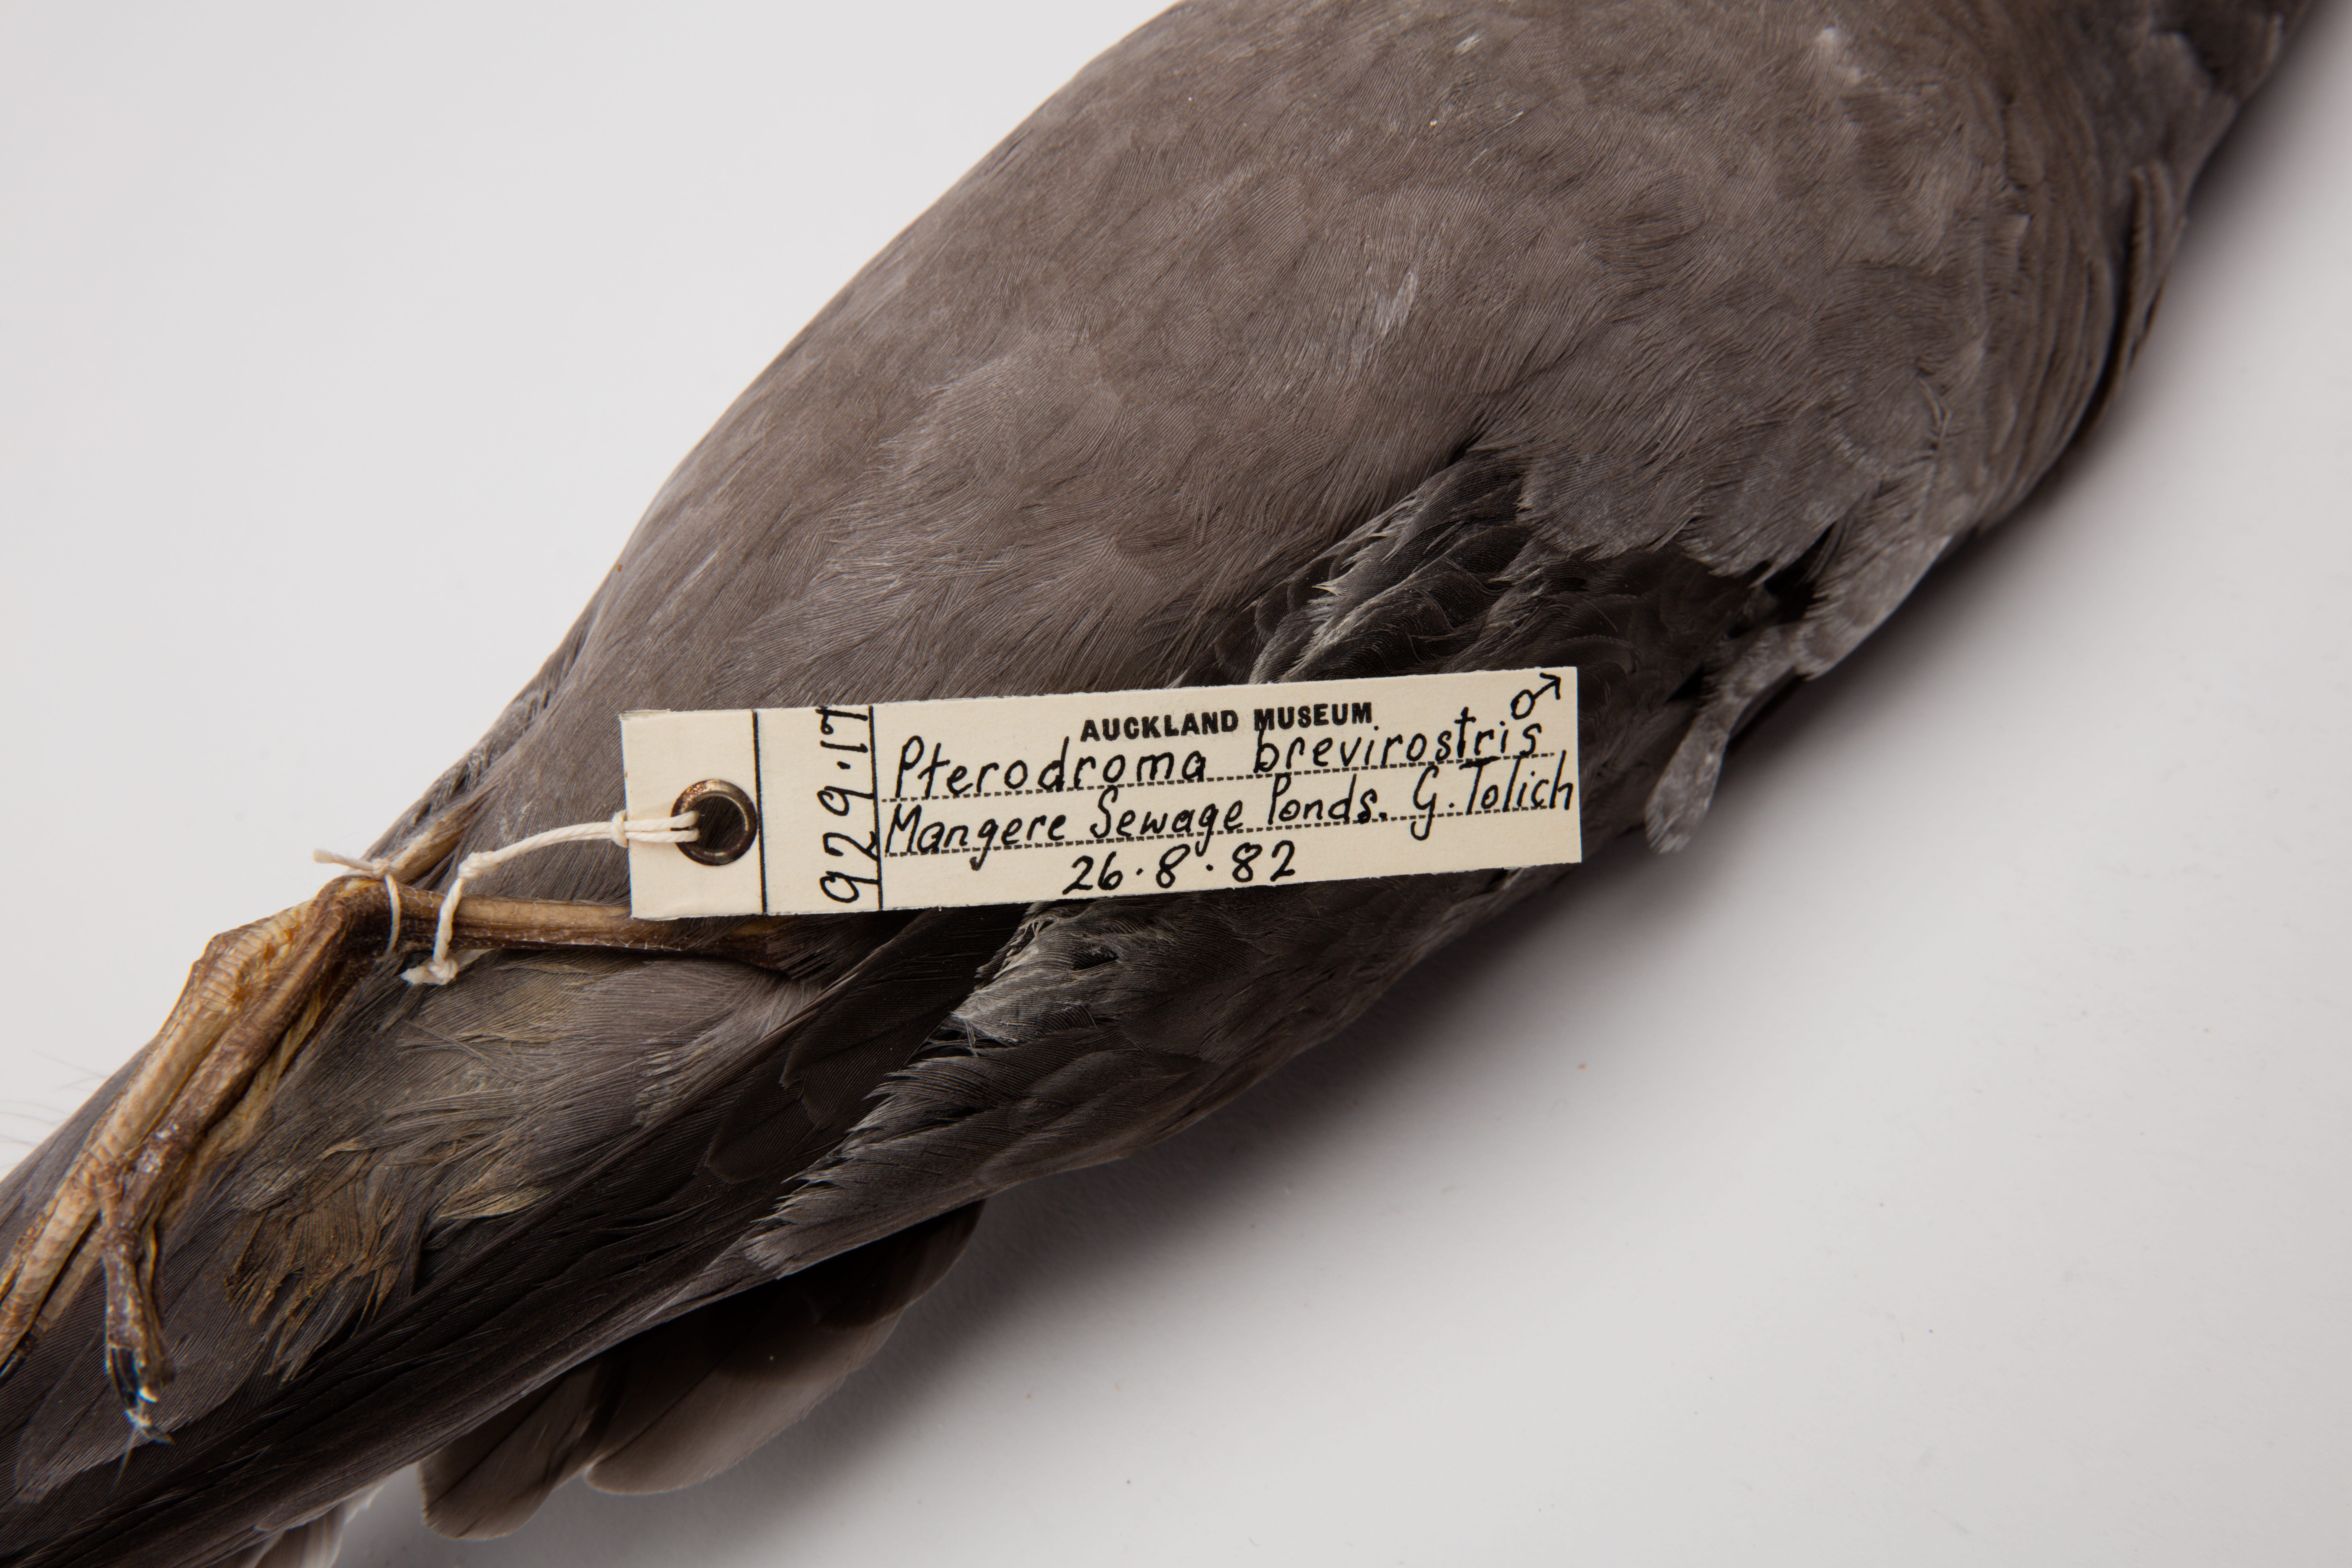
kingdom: Animalia
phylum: Chordata
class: Aves
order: Procellariiformes
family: Procellariidae
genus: Aphrodroma
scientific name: Aphrodroma brevirostris
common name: Kerguelen petrel
